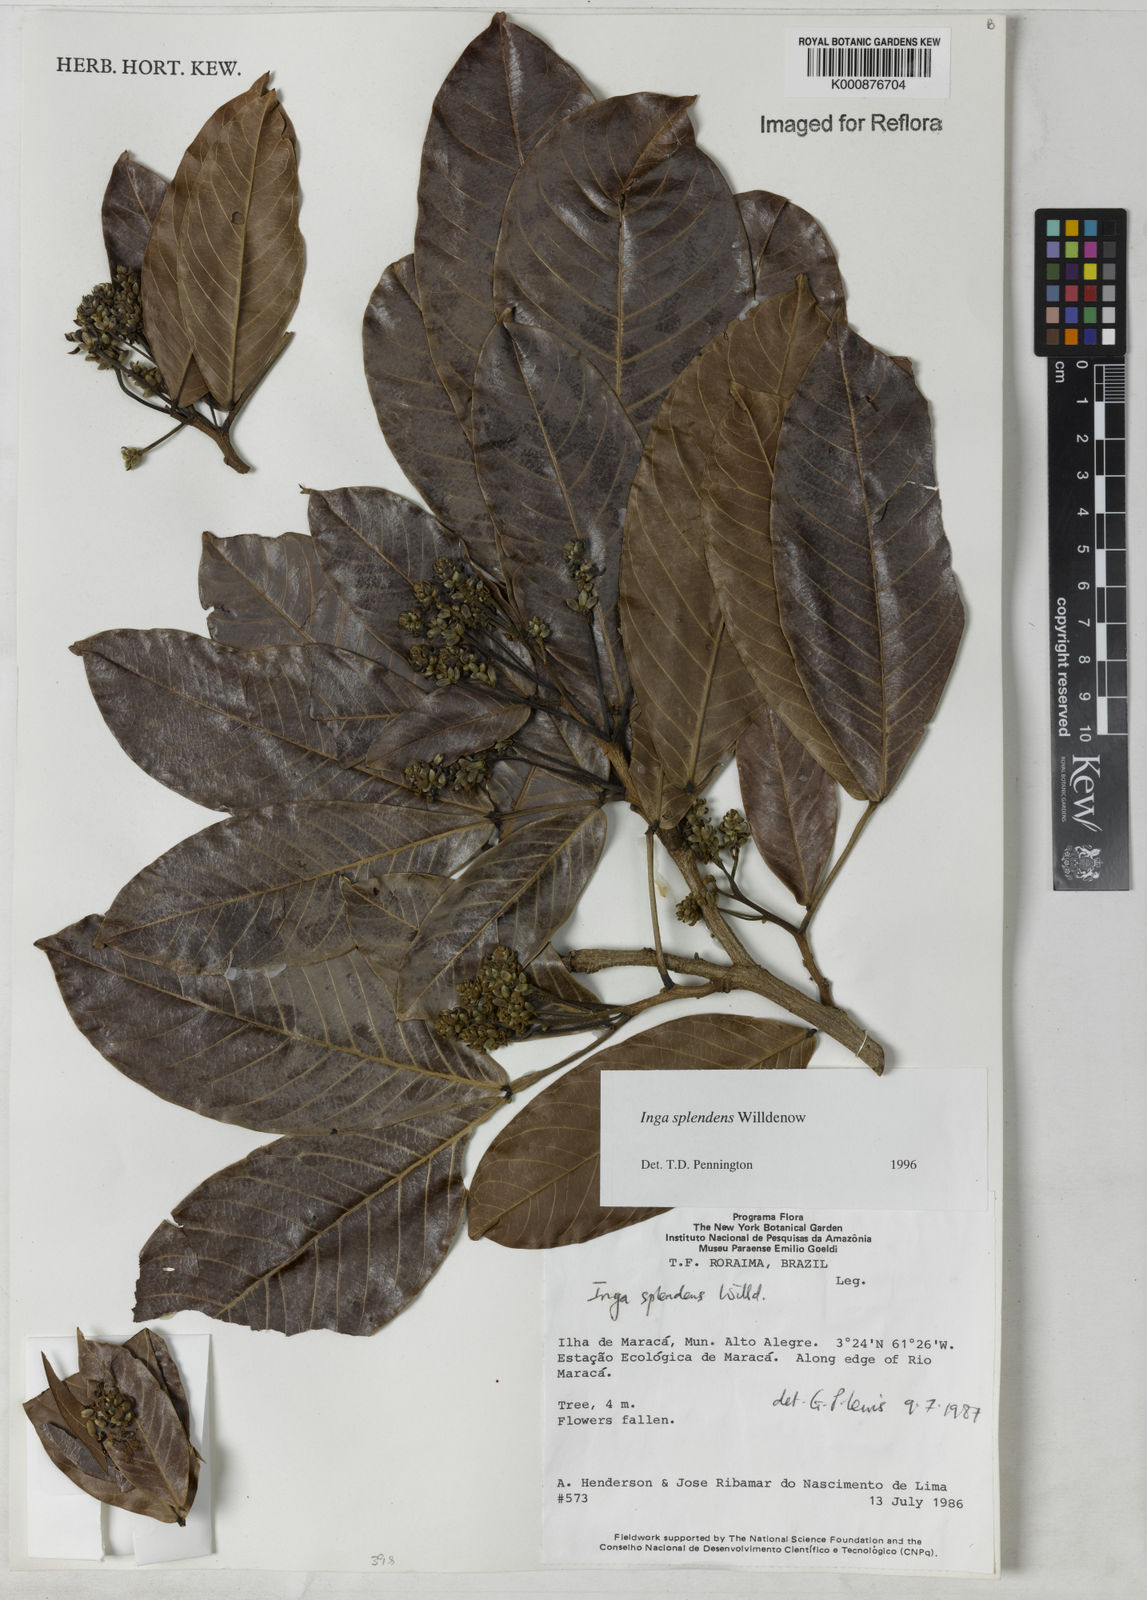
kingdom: Plantae
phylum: Tracheophyta
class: Magnoliopsida
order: Fabales
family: Fabaceae
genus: Inga
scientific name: Inga splendens
